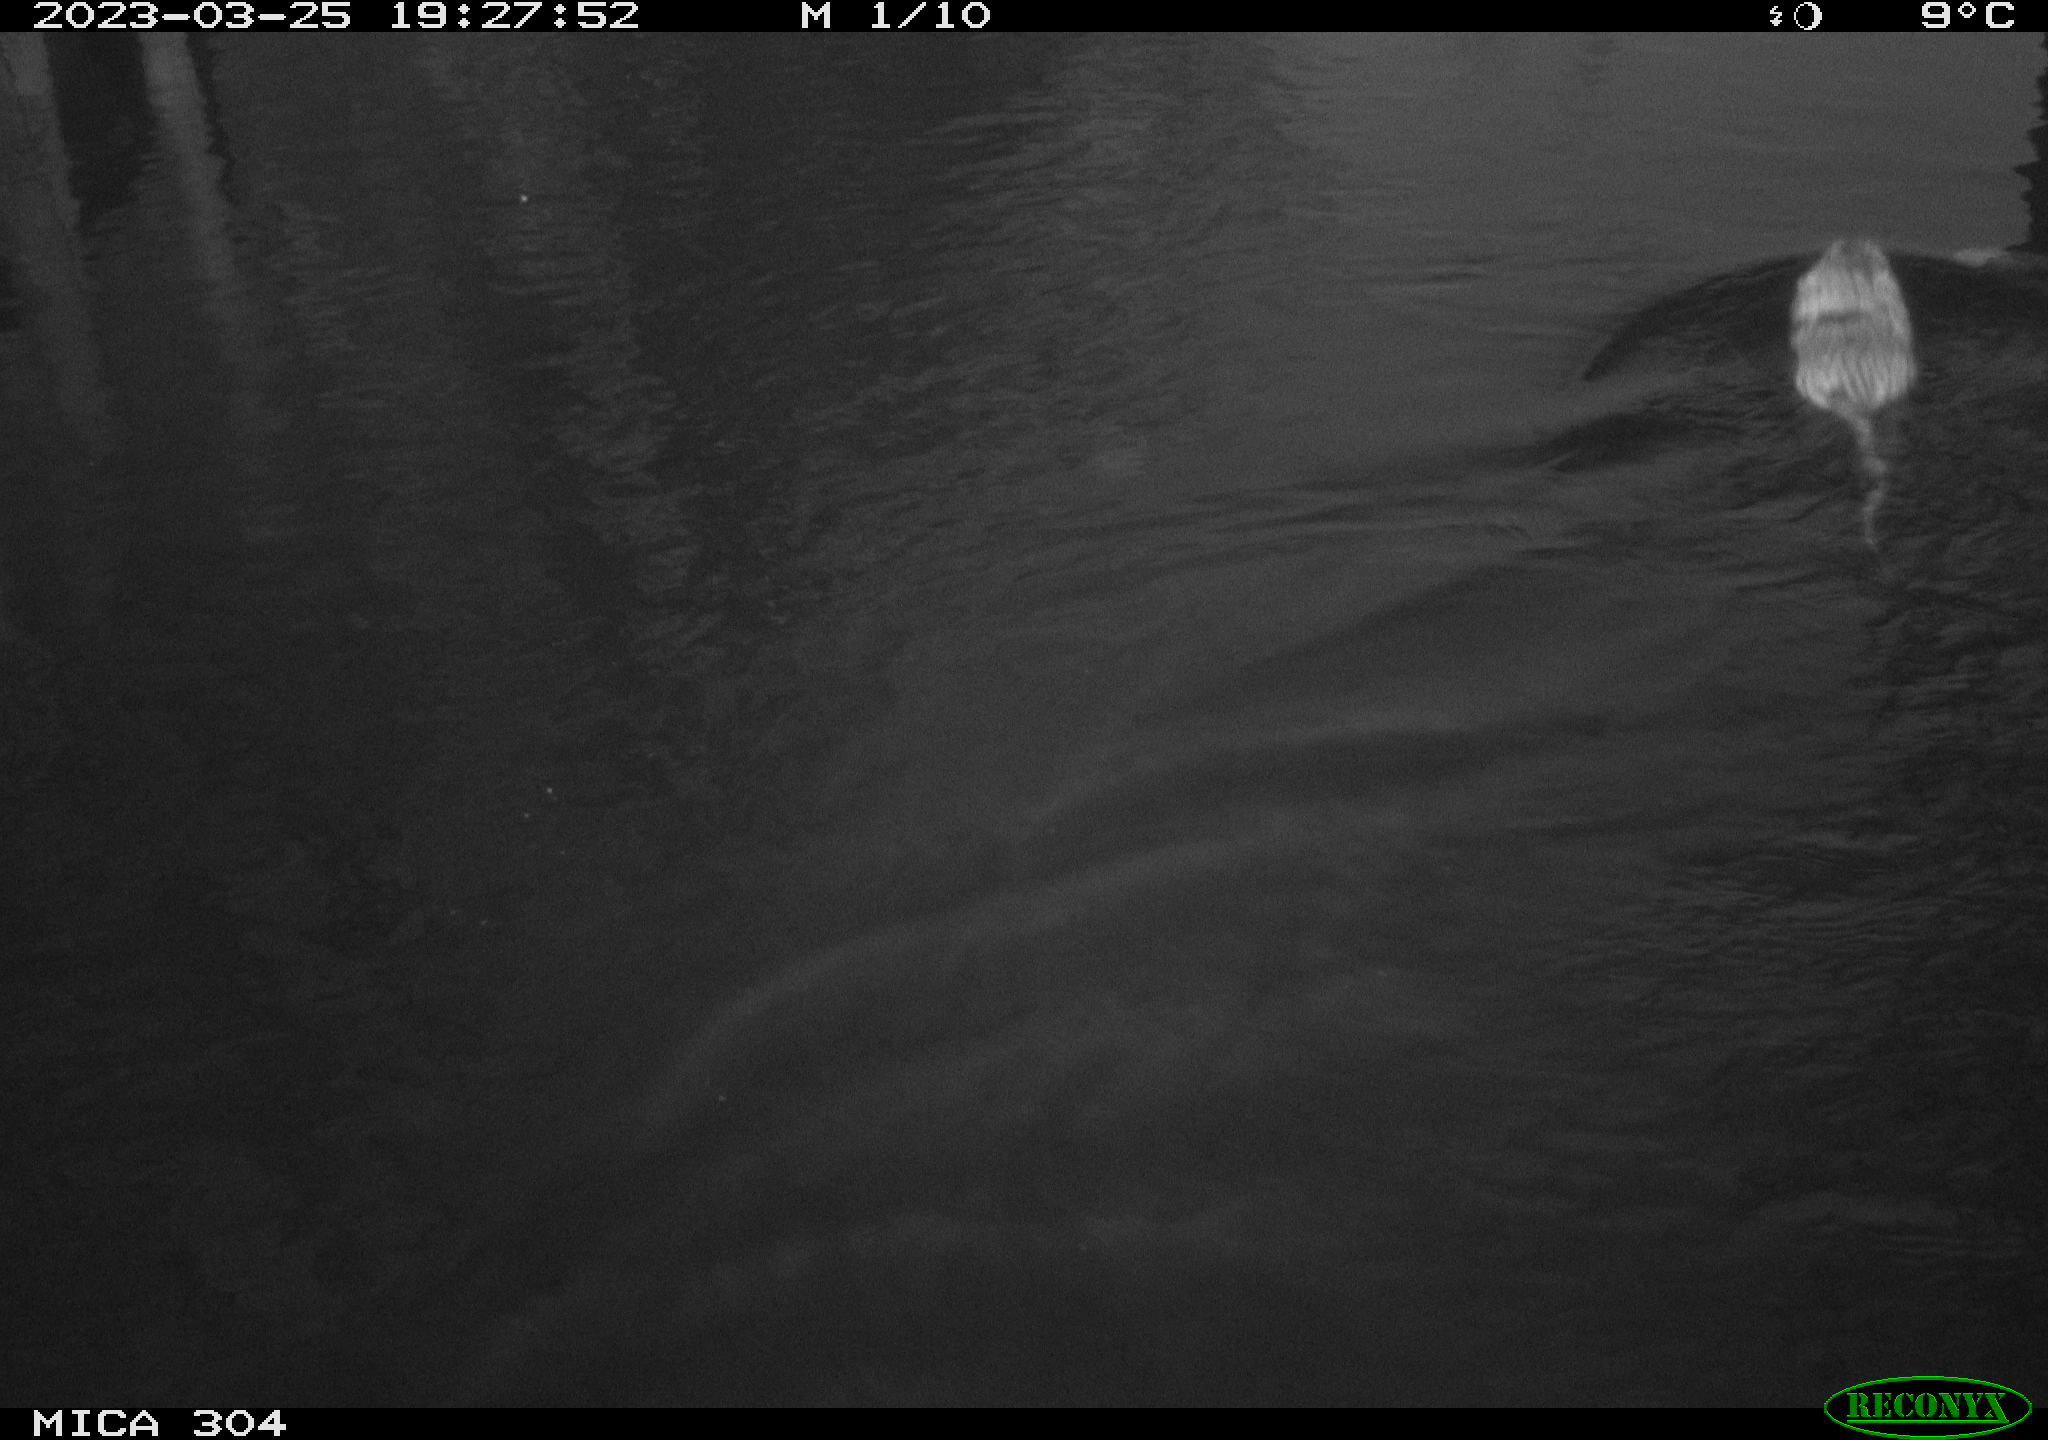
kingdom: Animalia
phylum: Chordata
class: Mammalia
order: Rodentia
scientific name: Rodentia
